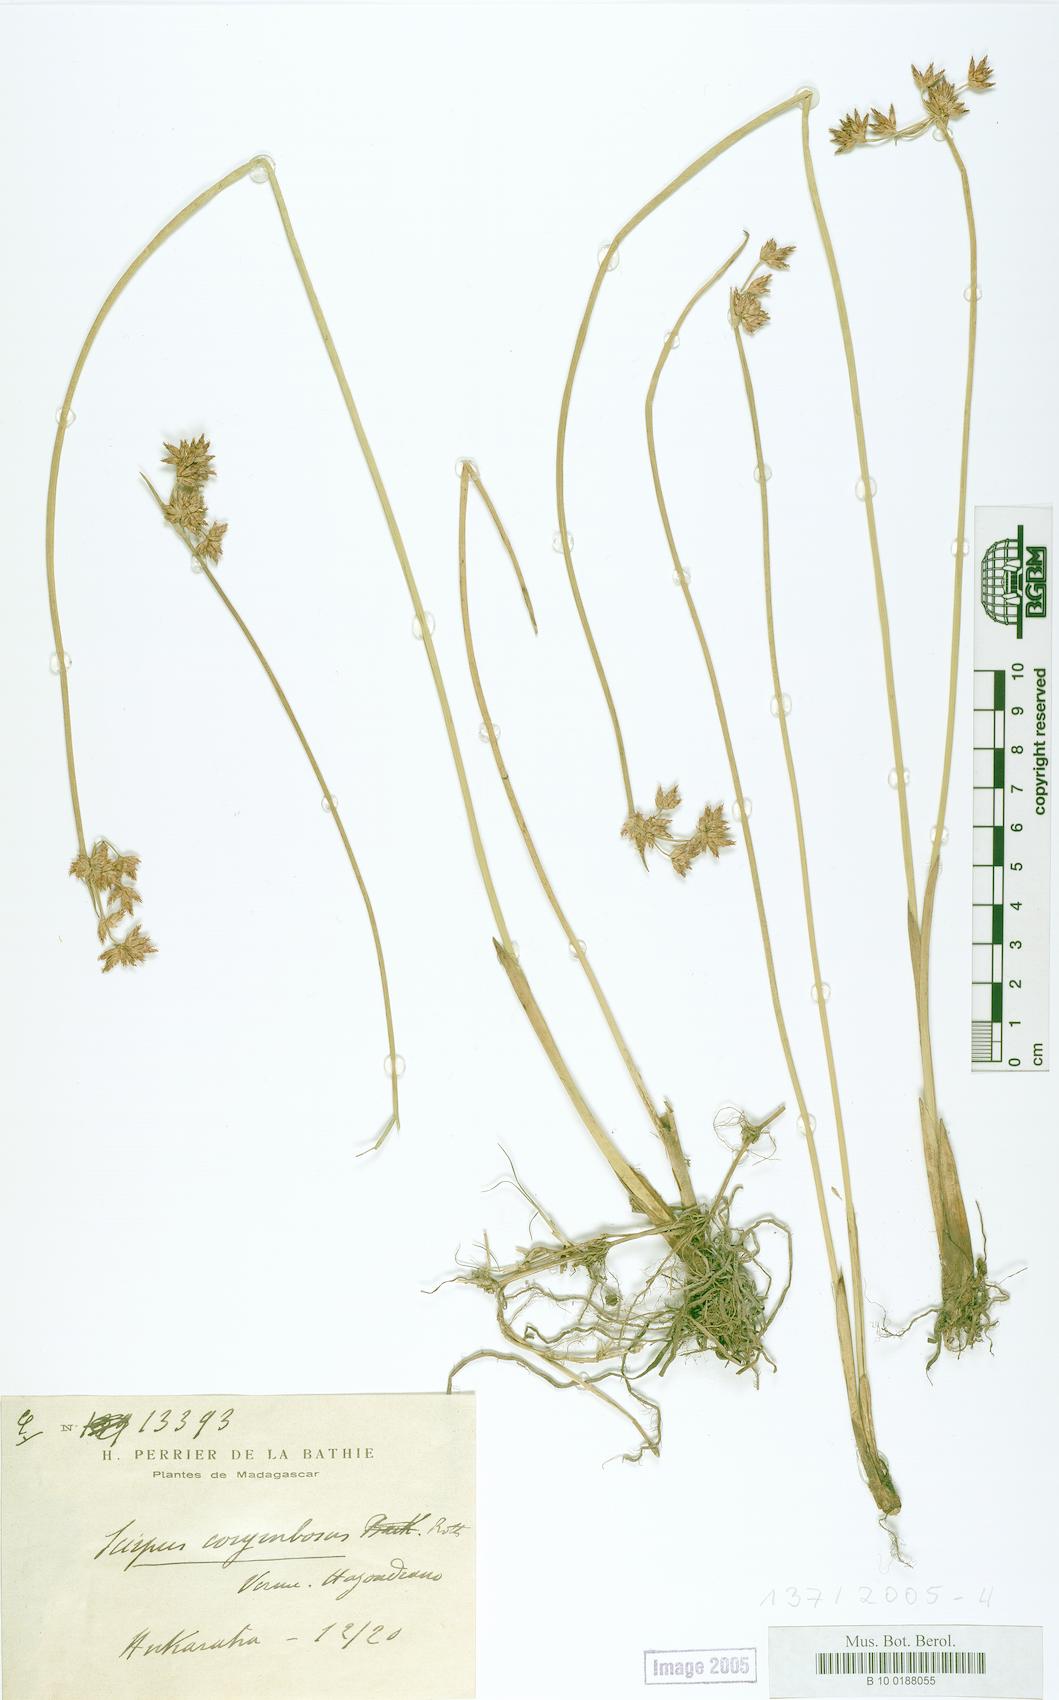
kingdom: Plantae
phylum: Tracheophyta
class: Liliopsida
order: Poales
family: Cyperaceae
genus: Scirpus
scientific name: Scirpus corymbosus
